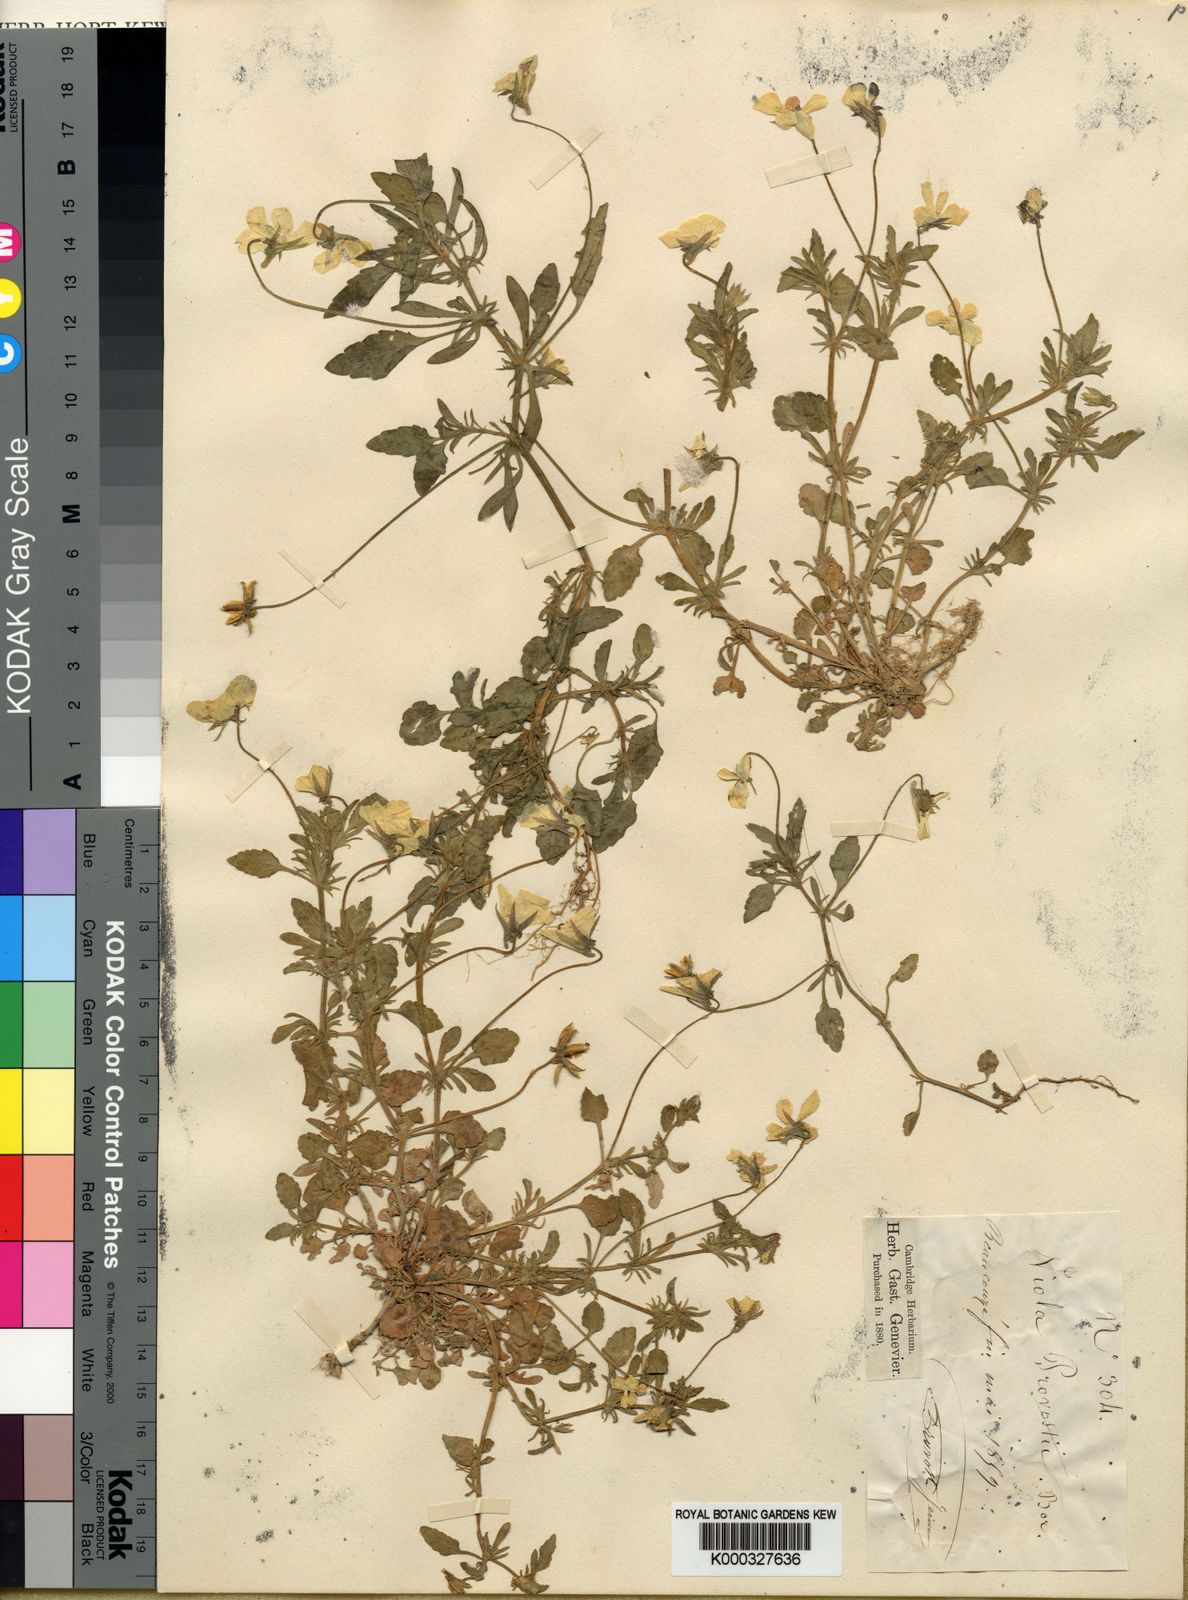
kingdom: Plantae
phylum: Tracheophyta
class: Magnoliopsida
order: Malpighiales
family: Violaceae
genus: Viola
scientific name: Viola tricolor
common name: Pansy
